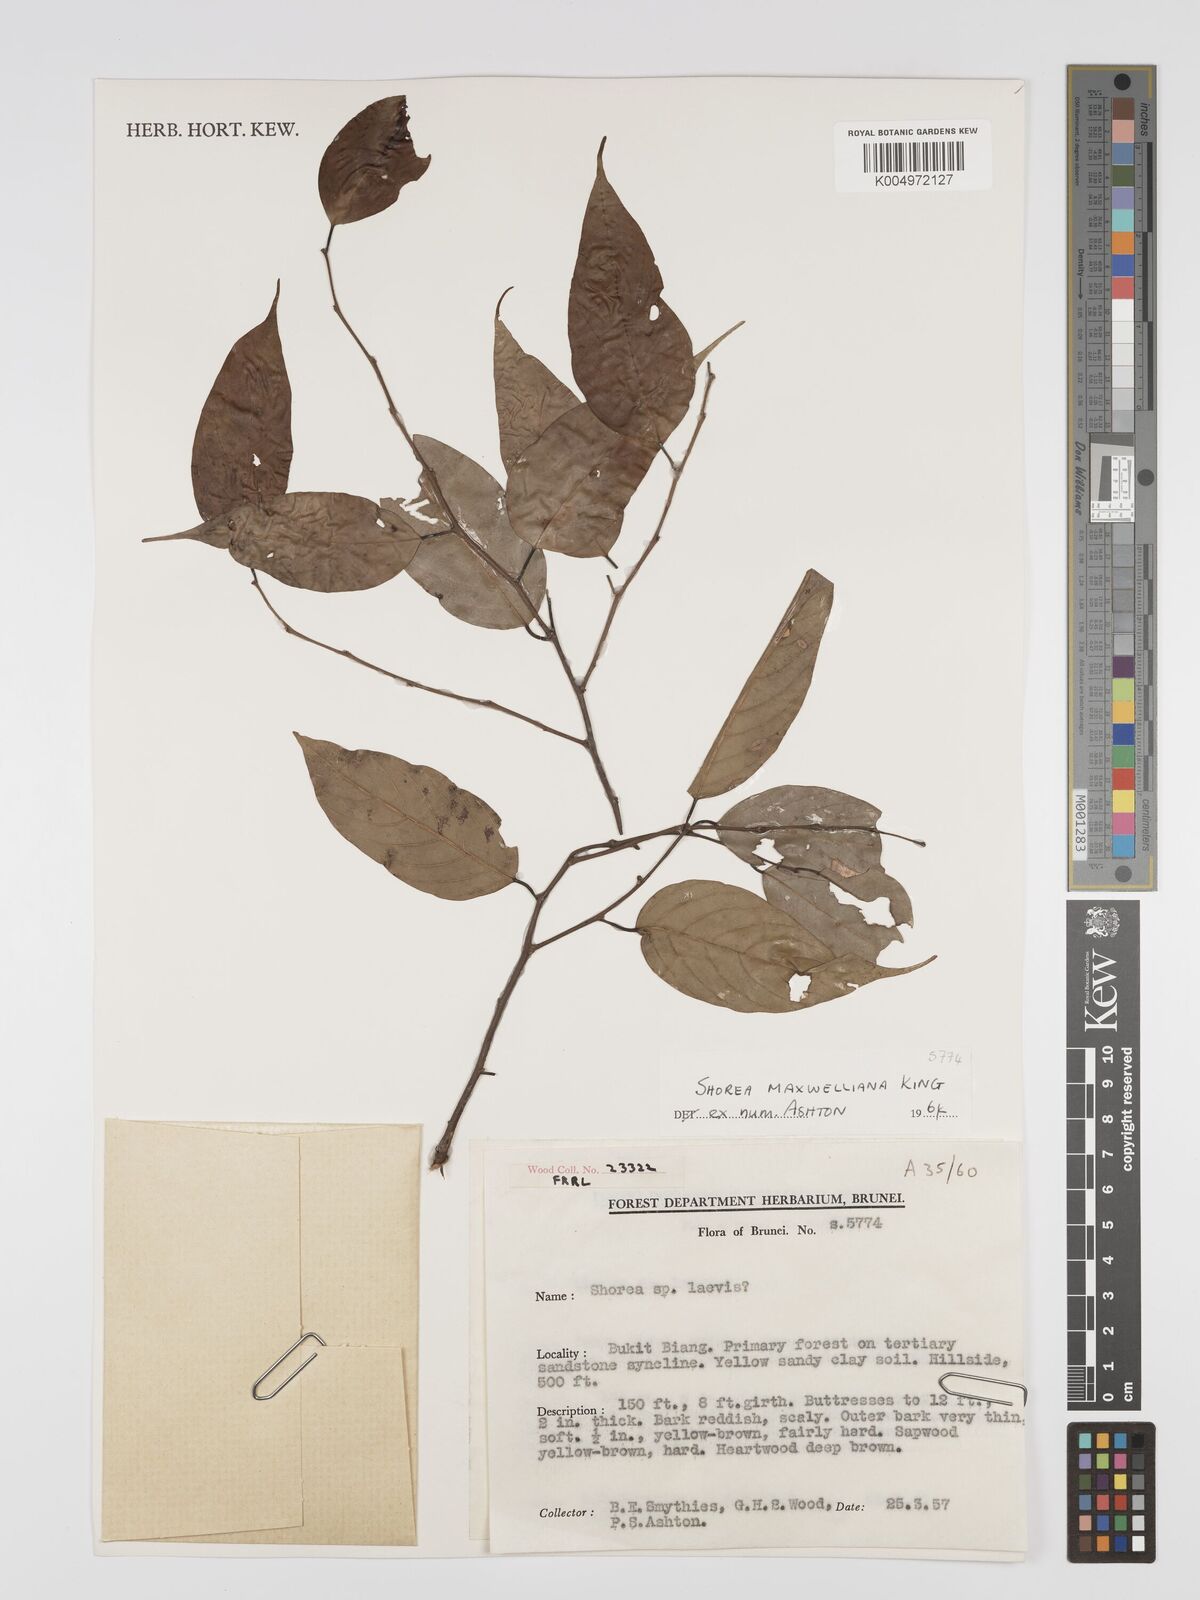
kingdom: Plantae
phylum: Tracheophyta
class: Magnoliopsida
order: Malvales
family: Dipterocarpaceae
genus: Shorea
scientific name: Shorea maxwelliana
